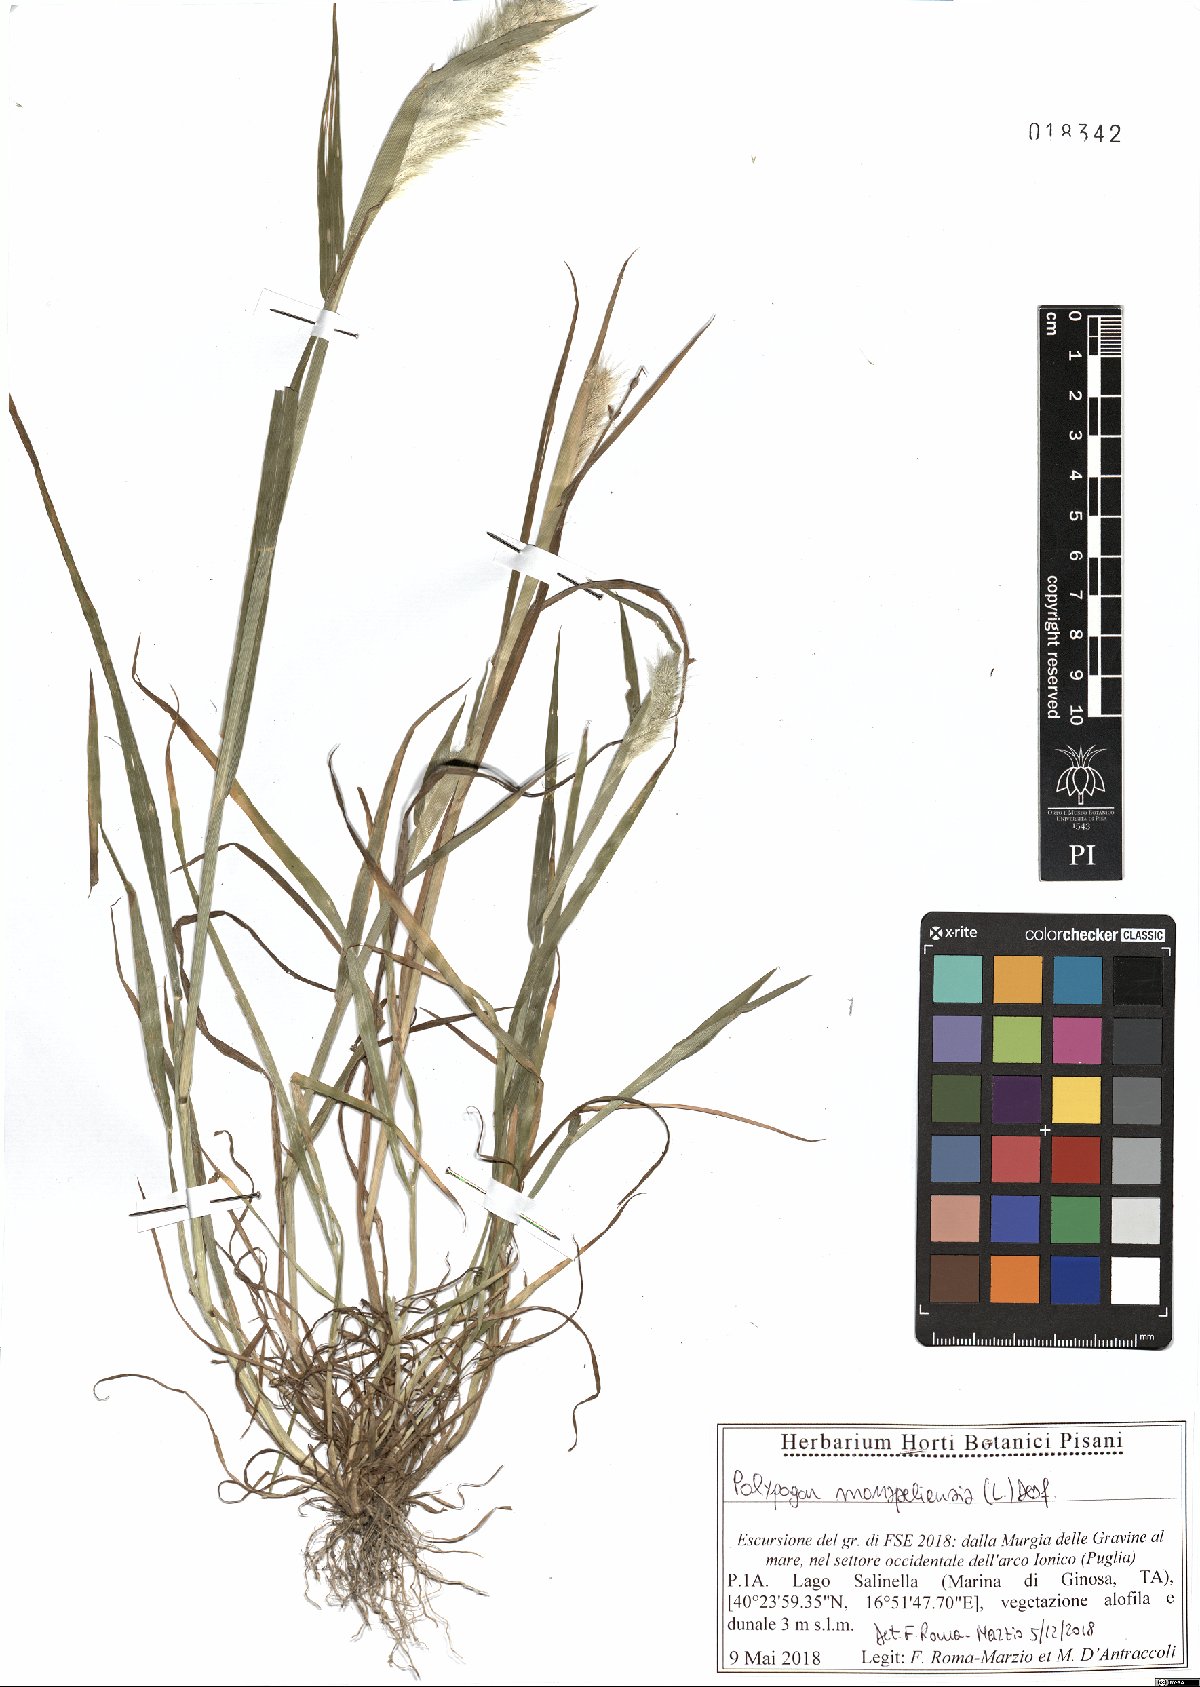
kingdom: Plantae
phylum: Tracheophyta
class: Liliopsida
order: Poales
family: Poaceae
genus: Polypogon
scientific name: Polypogon monspeliensis
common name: Annual rabbitsfoot grass
